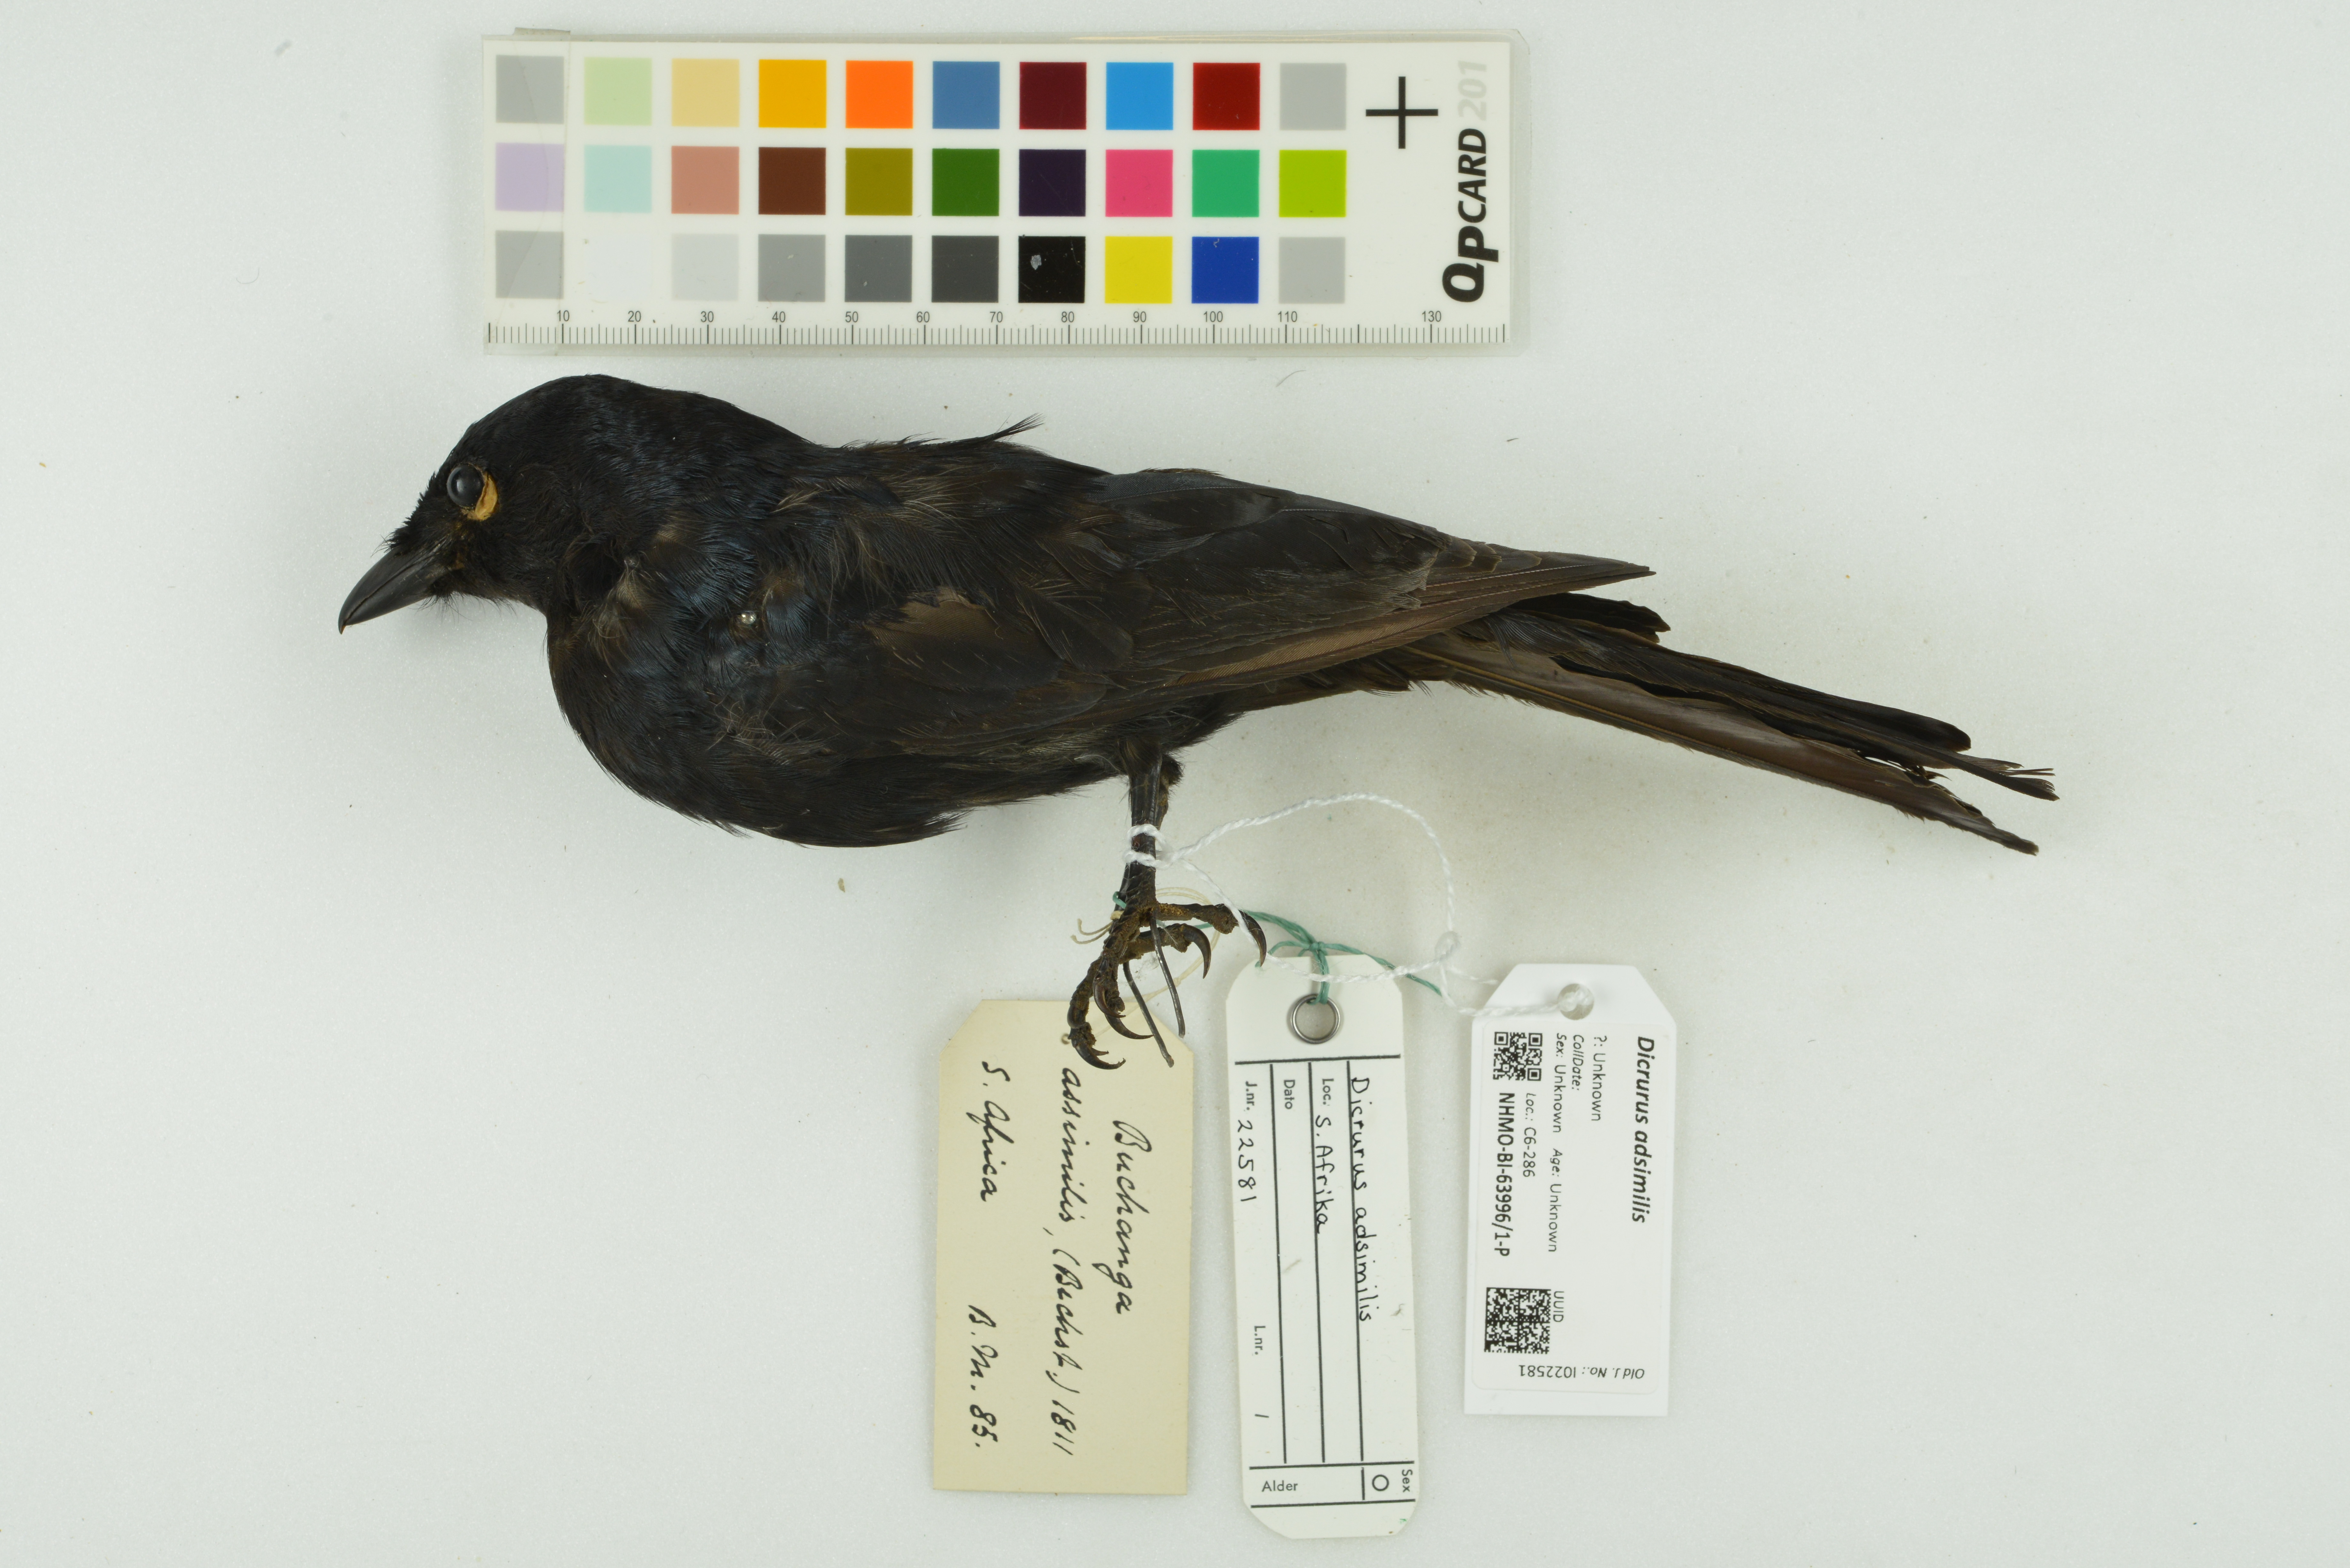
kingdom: Animalia
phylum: Chordata
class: Aves
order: Passeriformes
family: Dicruridae
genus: Dicrurus
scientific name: Dicrurus adsimilis
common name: Fork-tailed drongo
